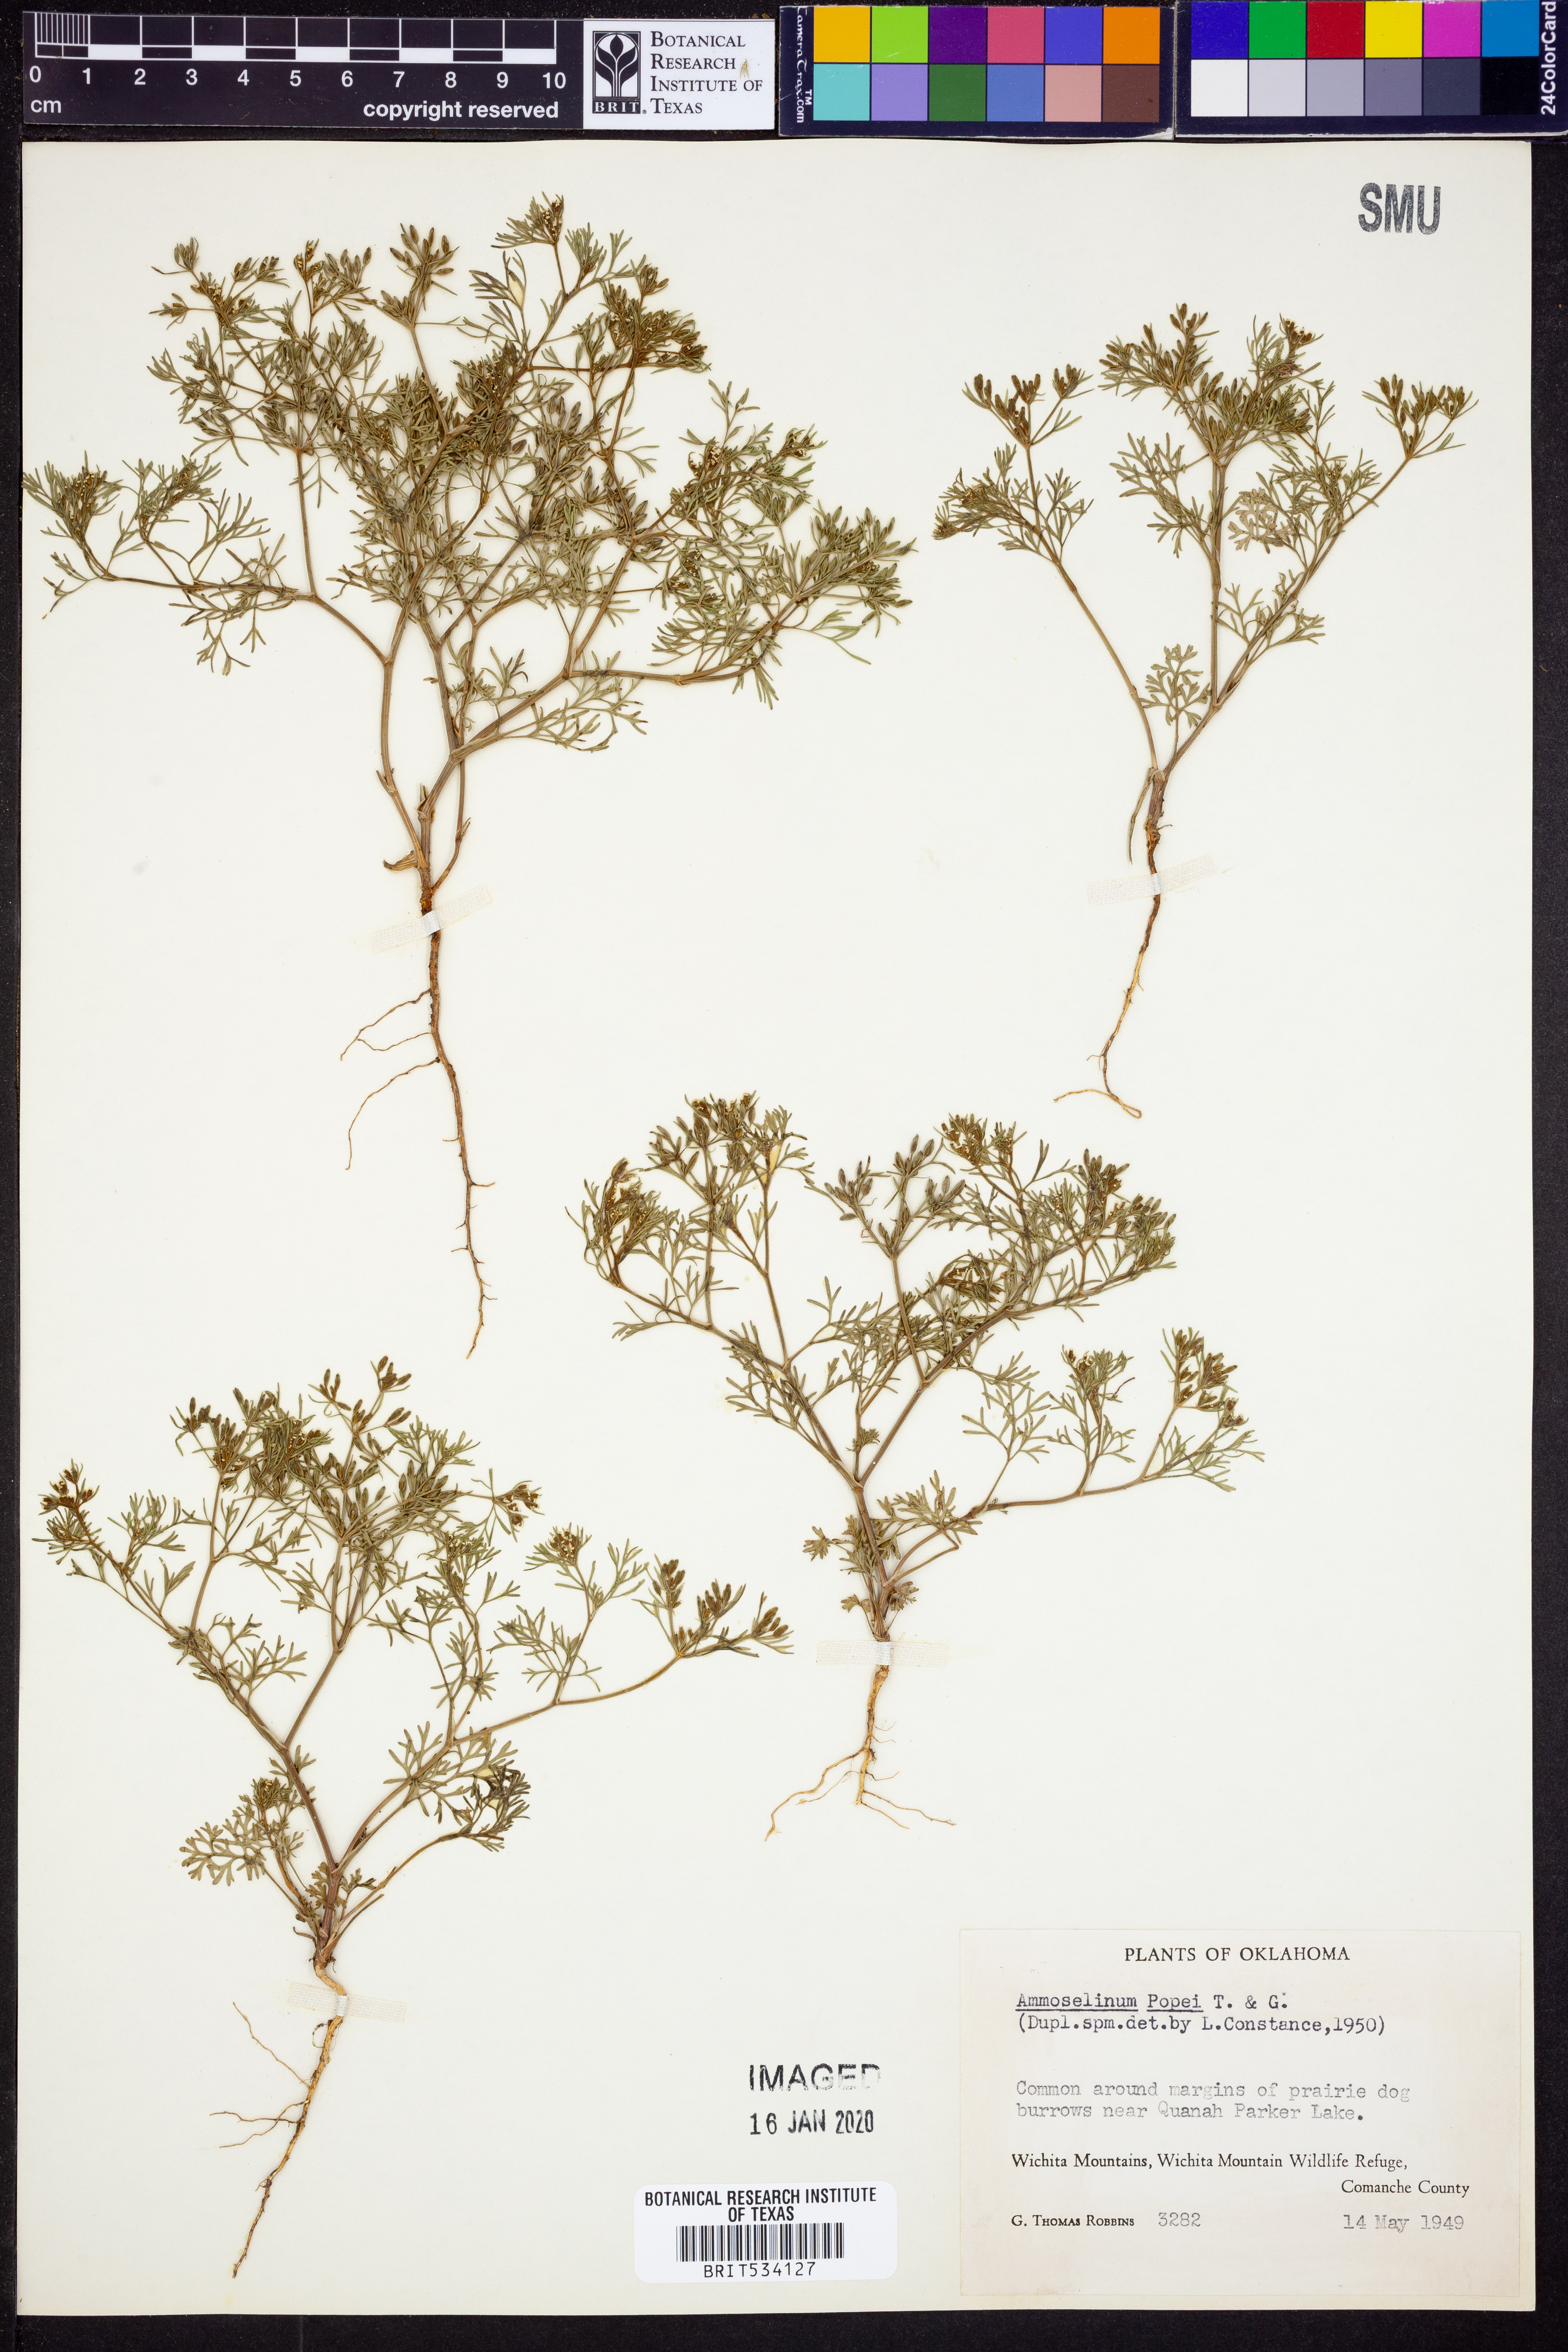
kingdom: Plantae
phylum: Tracheophyta
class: Magnoliopsida
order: Apiales
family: Apiaceae
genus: Ammoselinum
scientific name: Ammoselinum popei
